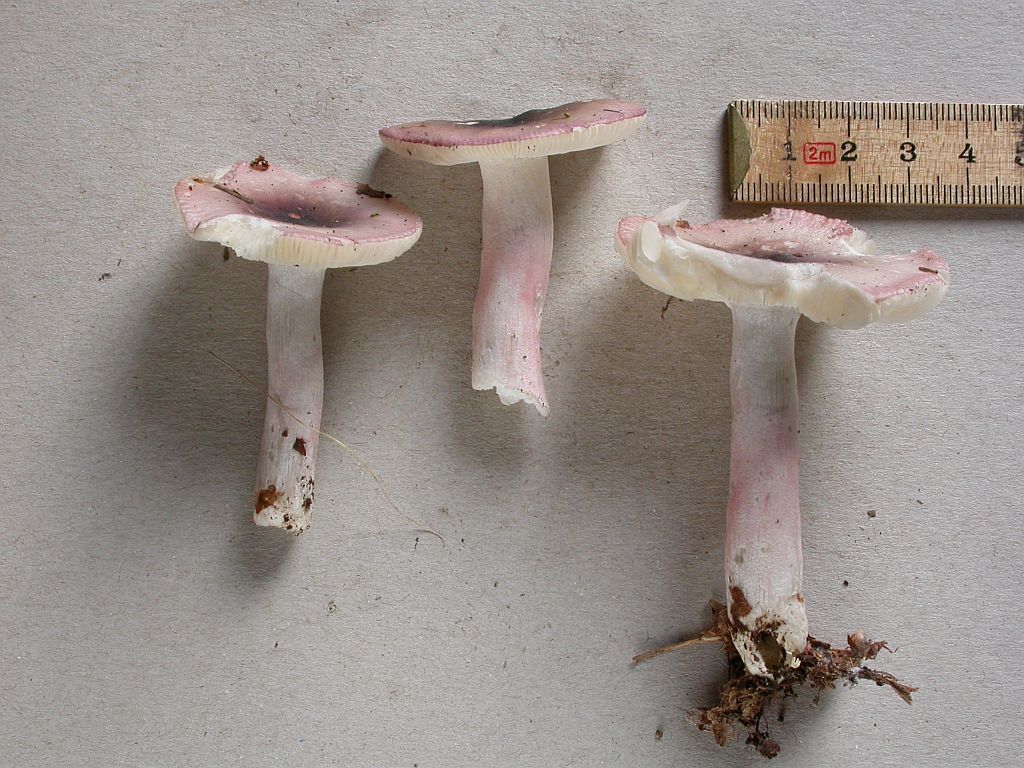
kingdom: Fungi
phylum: Basidiomycota
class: Agaricomycetes
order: Russulales
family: Russulaceae
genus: Russula
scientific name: Russula gracillima
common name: slank skørhat
